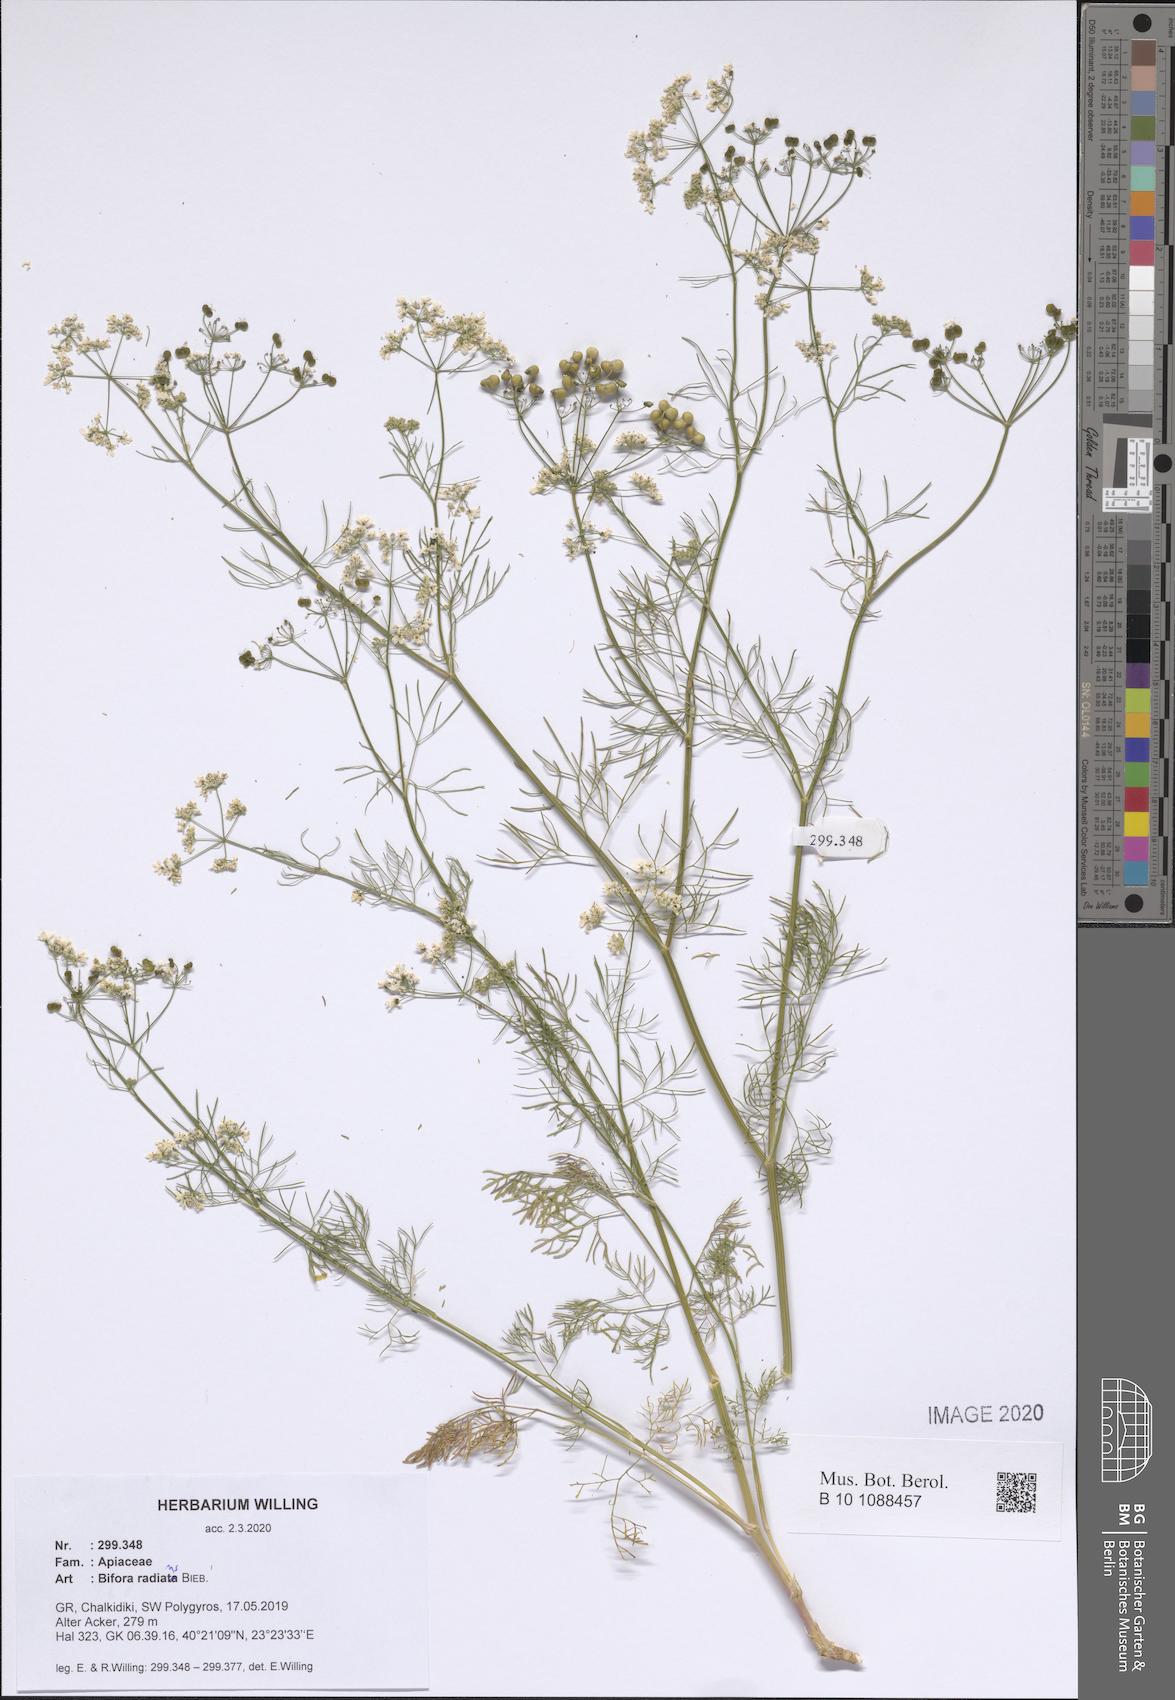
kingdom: Plantae
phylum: Tracheophyta
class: Magnoliopsida
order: Apiales
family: Apiaceae
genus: Bifora
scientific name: Bifora radians
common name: Wild bishop
